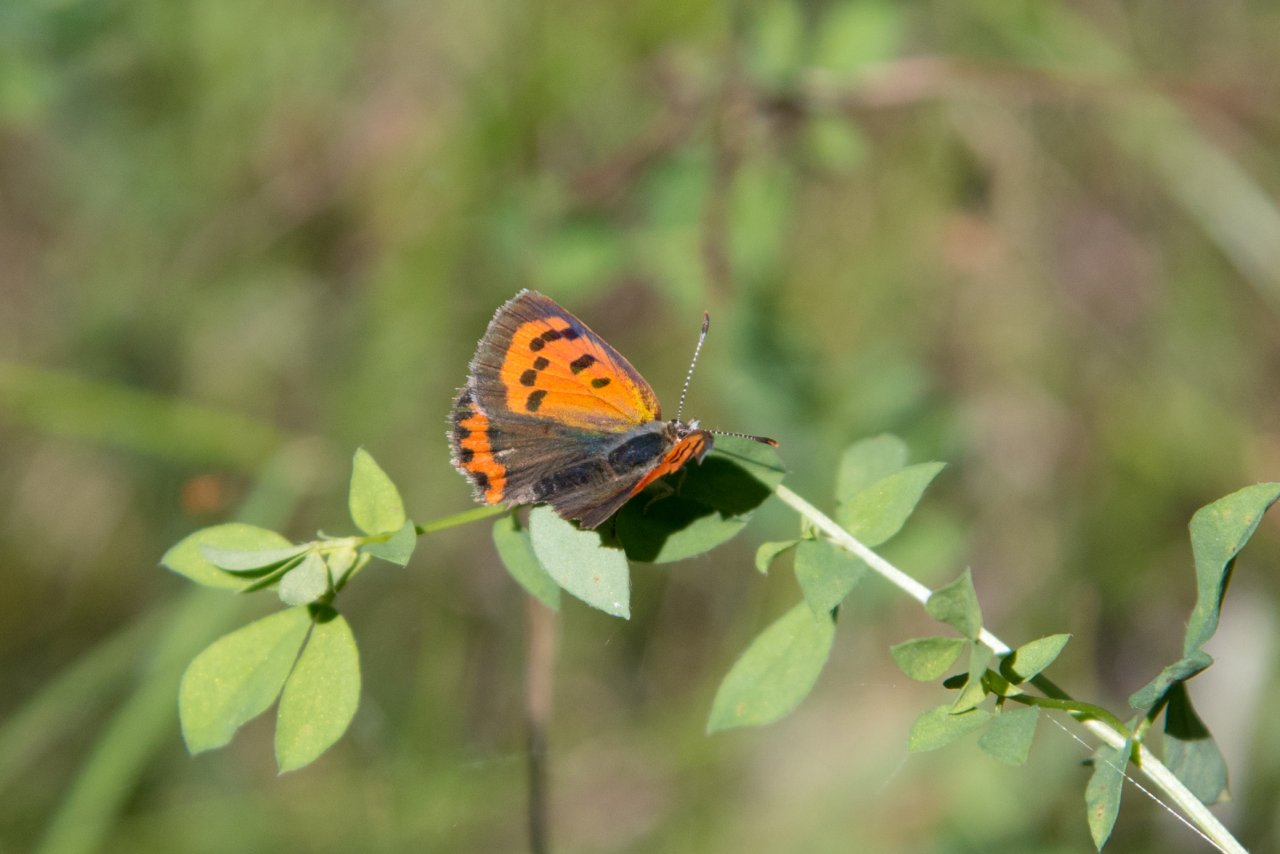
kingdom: Animalia
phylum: Arthropoda
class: Insecta
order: Lepidoptera
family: Lycaenidae
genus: Lycaena
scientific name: Lycaena phlaeas
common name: American Copper
